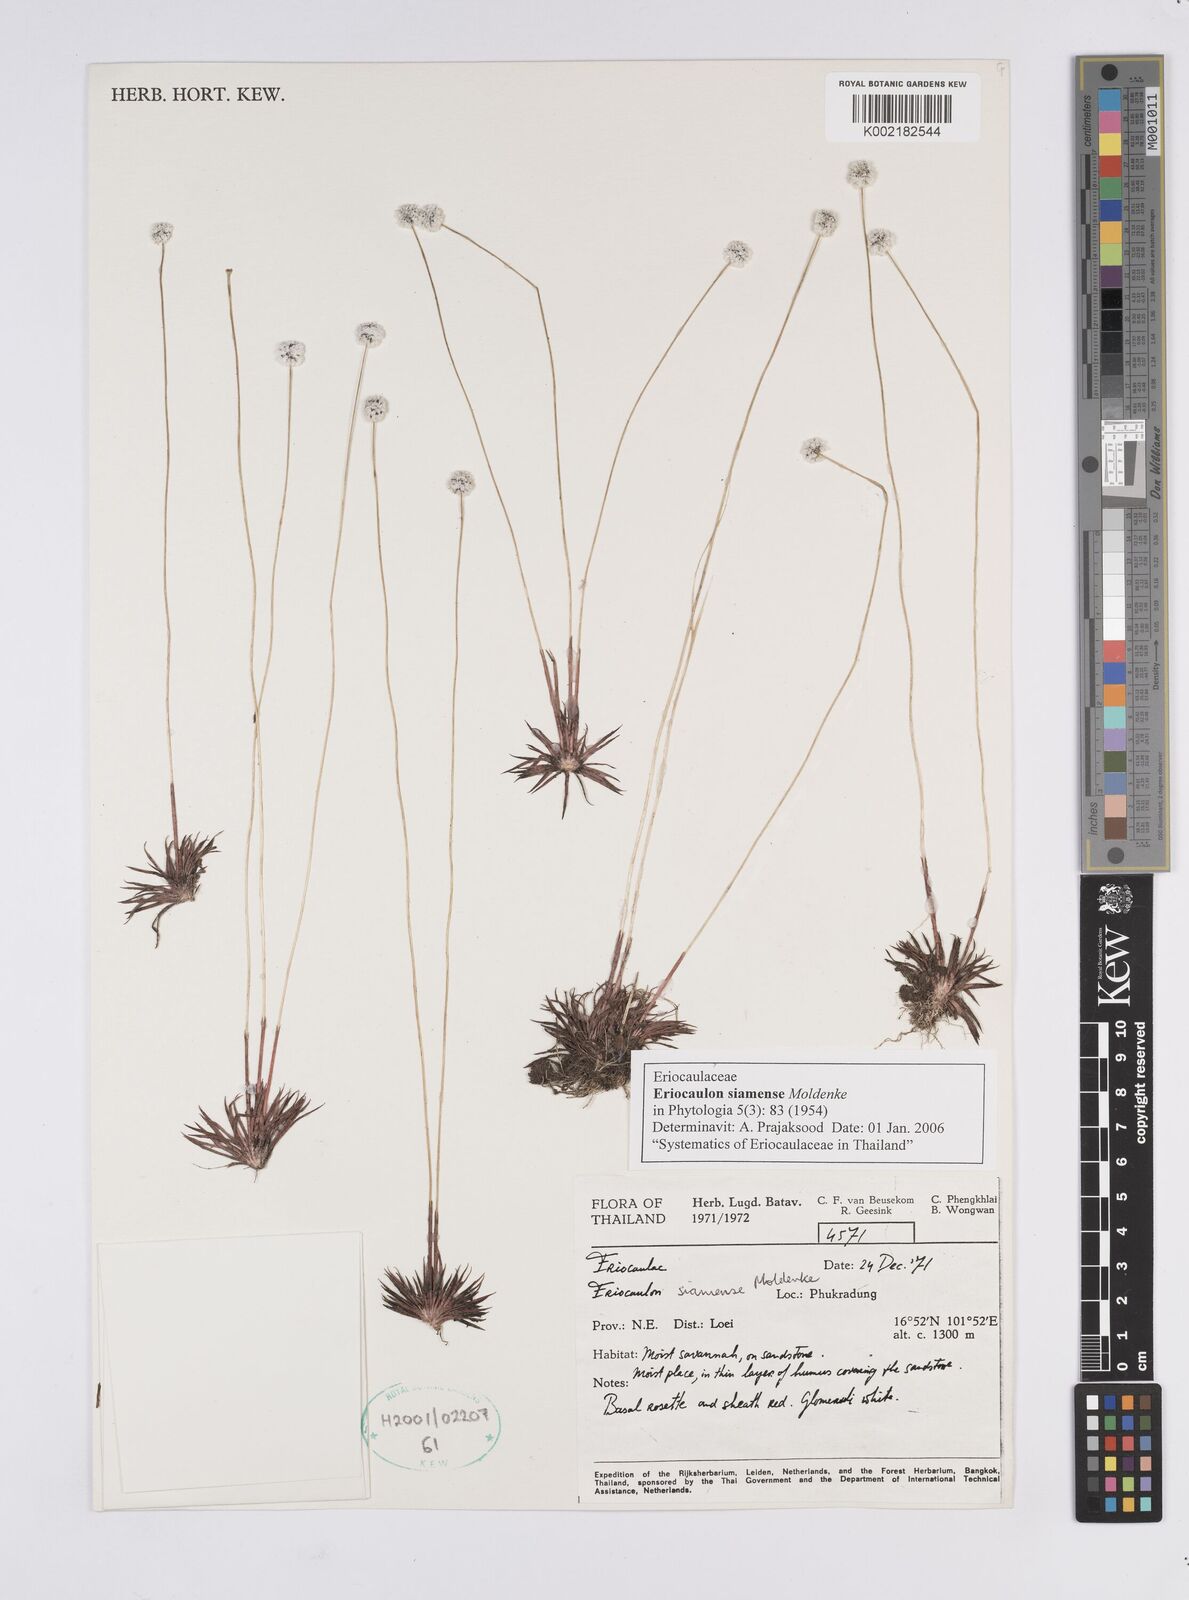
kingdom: Plantae
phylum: Tracheophyta
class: Liliopsida
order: Poales
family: Eriocaulaceae
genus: Eriocaulon
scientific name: Eriocaulon siamense
